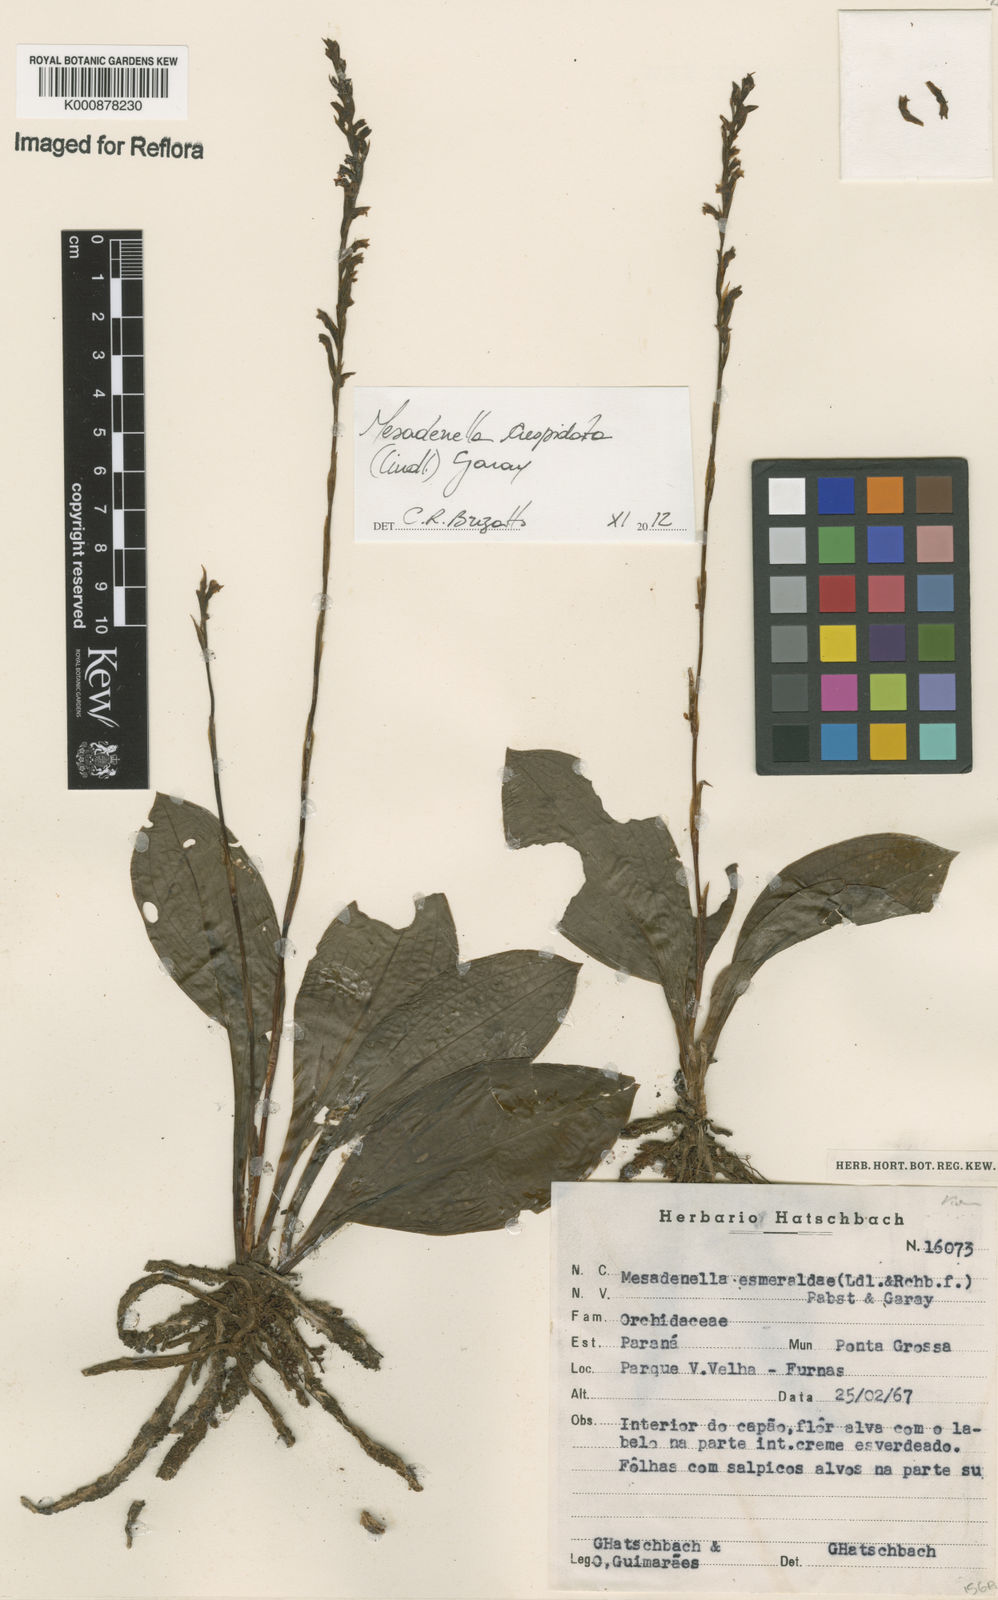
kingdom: Plantae
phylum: Tracheophyta
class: Liliopsida
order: Asparagales
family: Orchidaceae
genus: Mesadenella
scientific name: Mesadenella cuspidata
